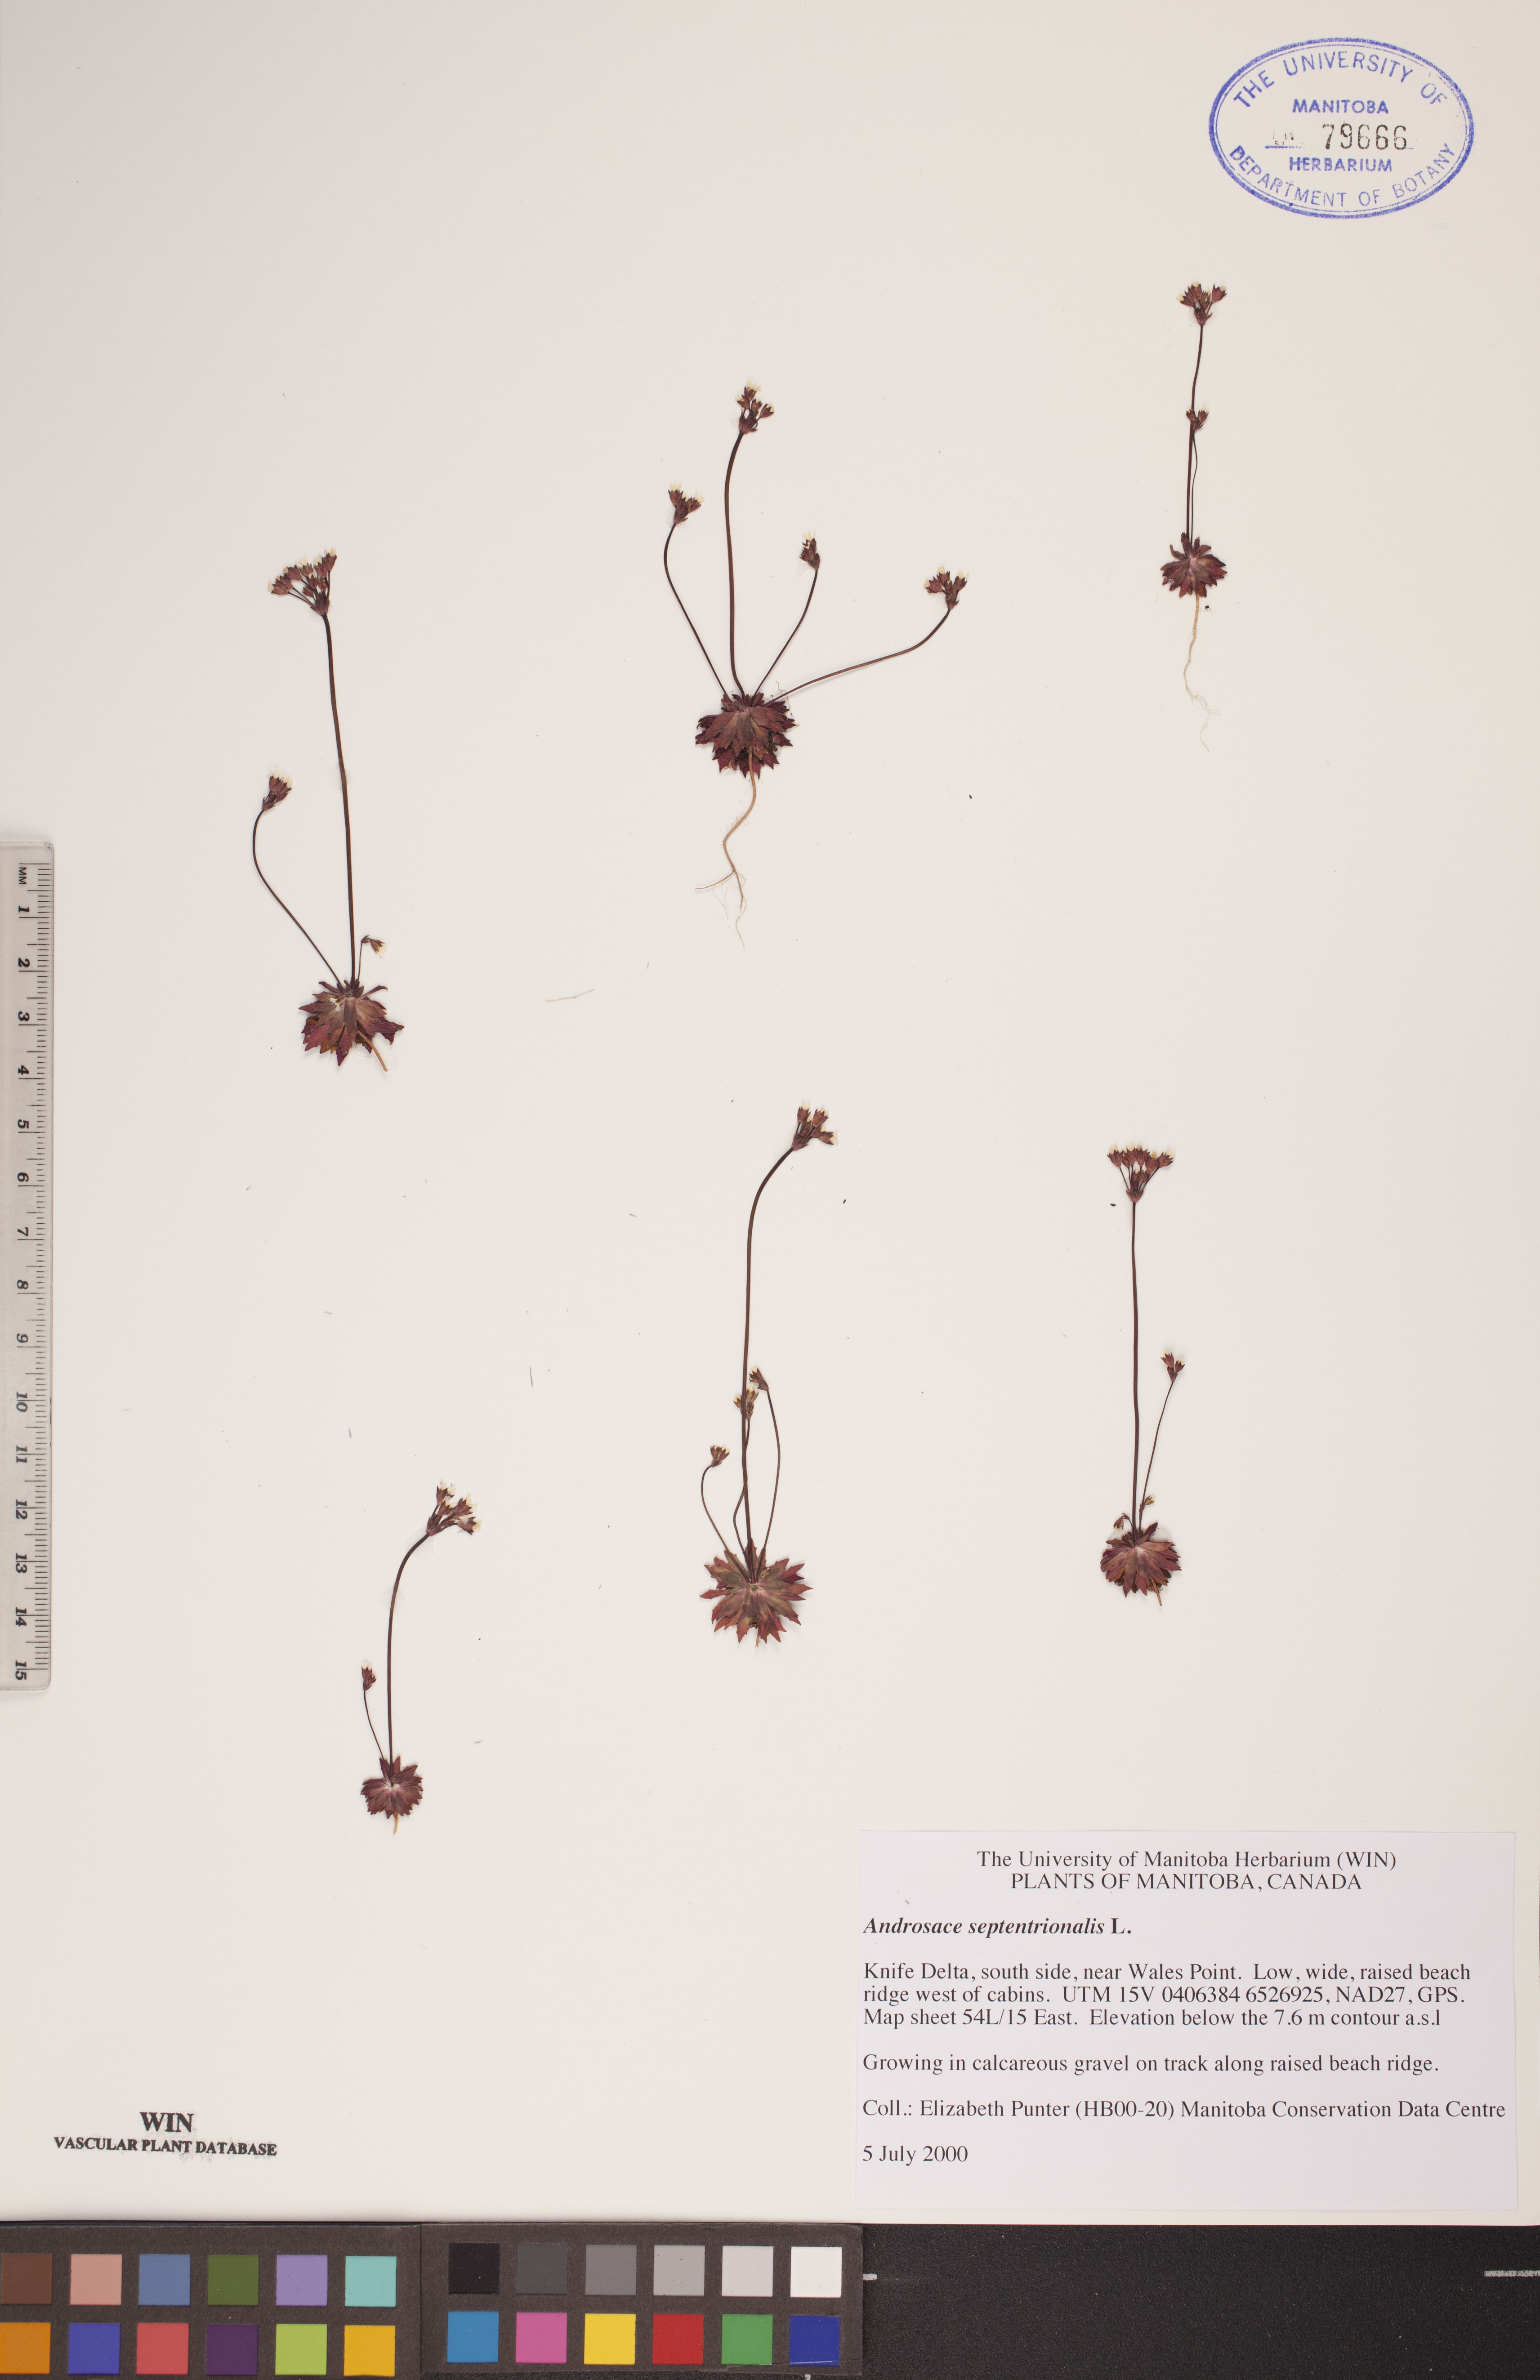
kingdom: Plantae
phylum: Tracheophyta
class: Magnoliopsida
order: Ericales
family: Primulaceae
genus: Androsace
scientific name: Androsace septentrionalis
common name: Hairy northern fairy-candelabra
